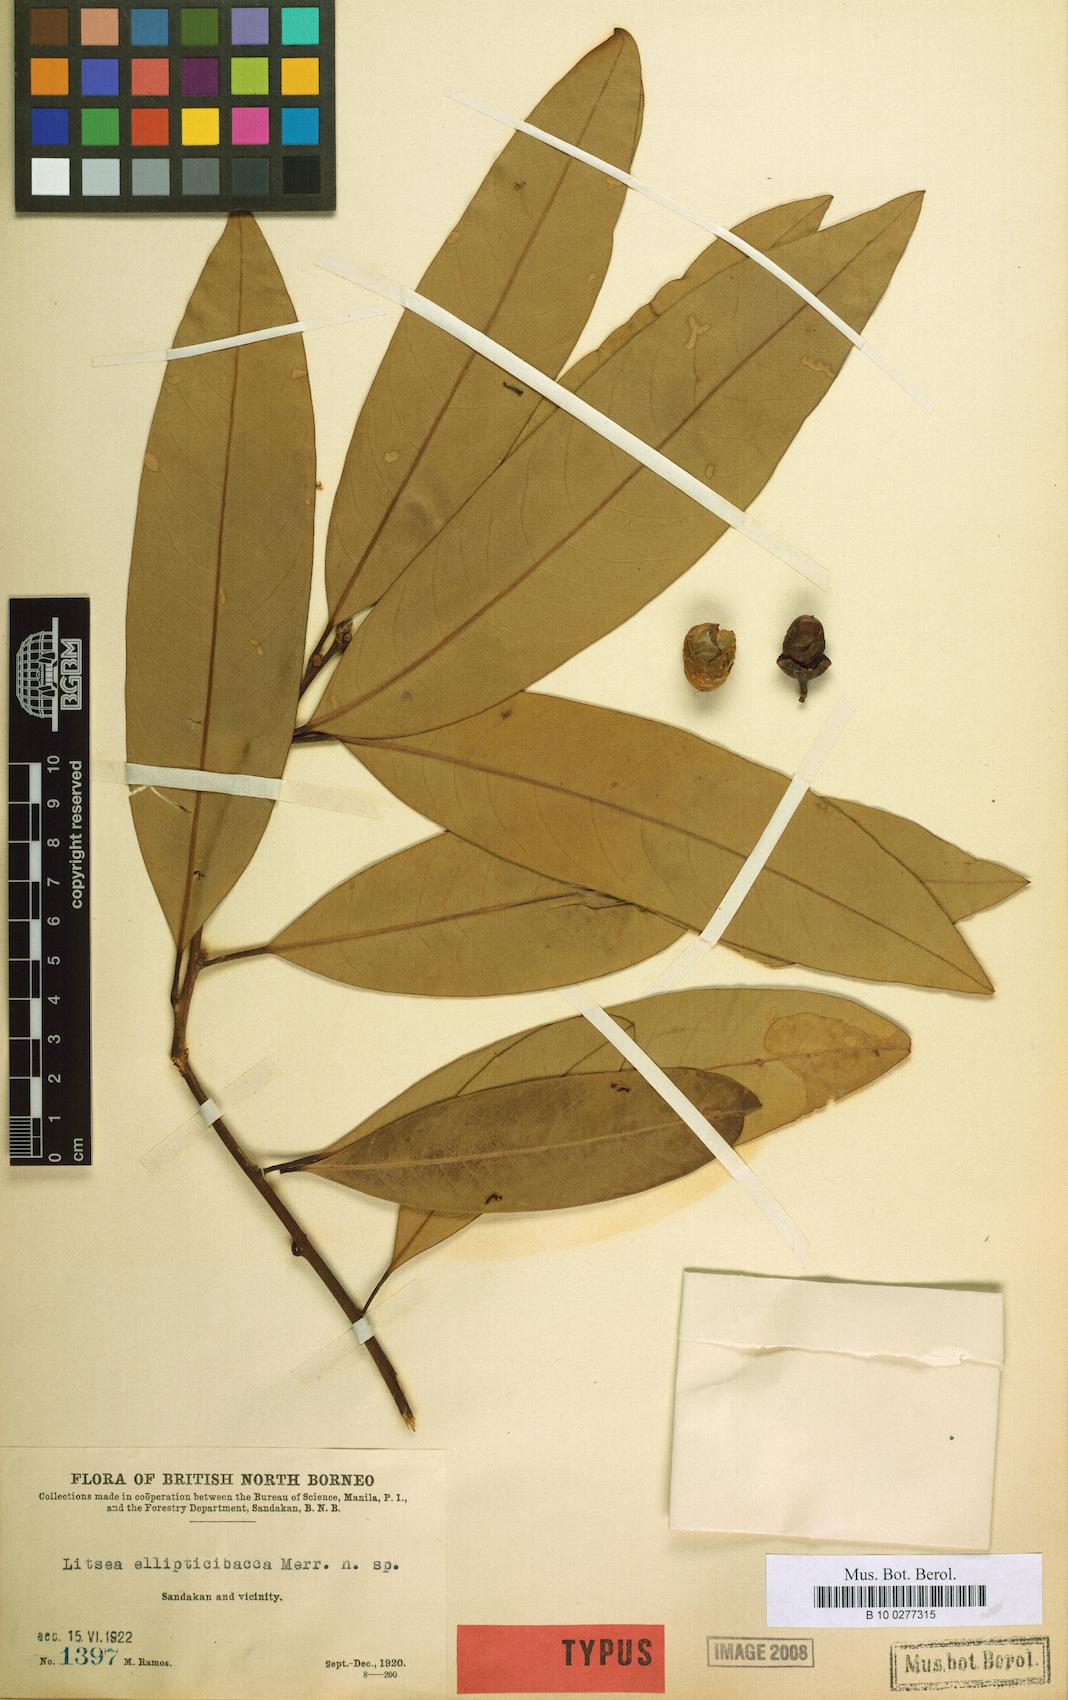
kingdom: Plantae
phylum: Tracheophyta
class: Magnoliopsida
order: Laurales
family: Lauraceae
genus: Litsea
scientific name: Litsea ellipticibacca
